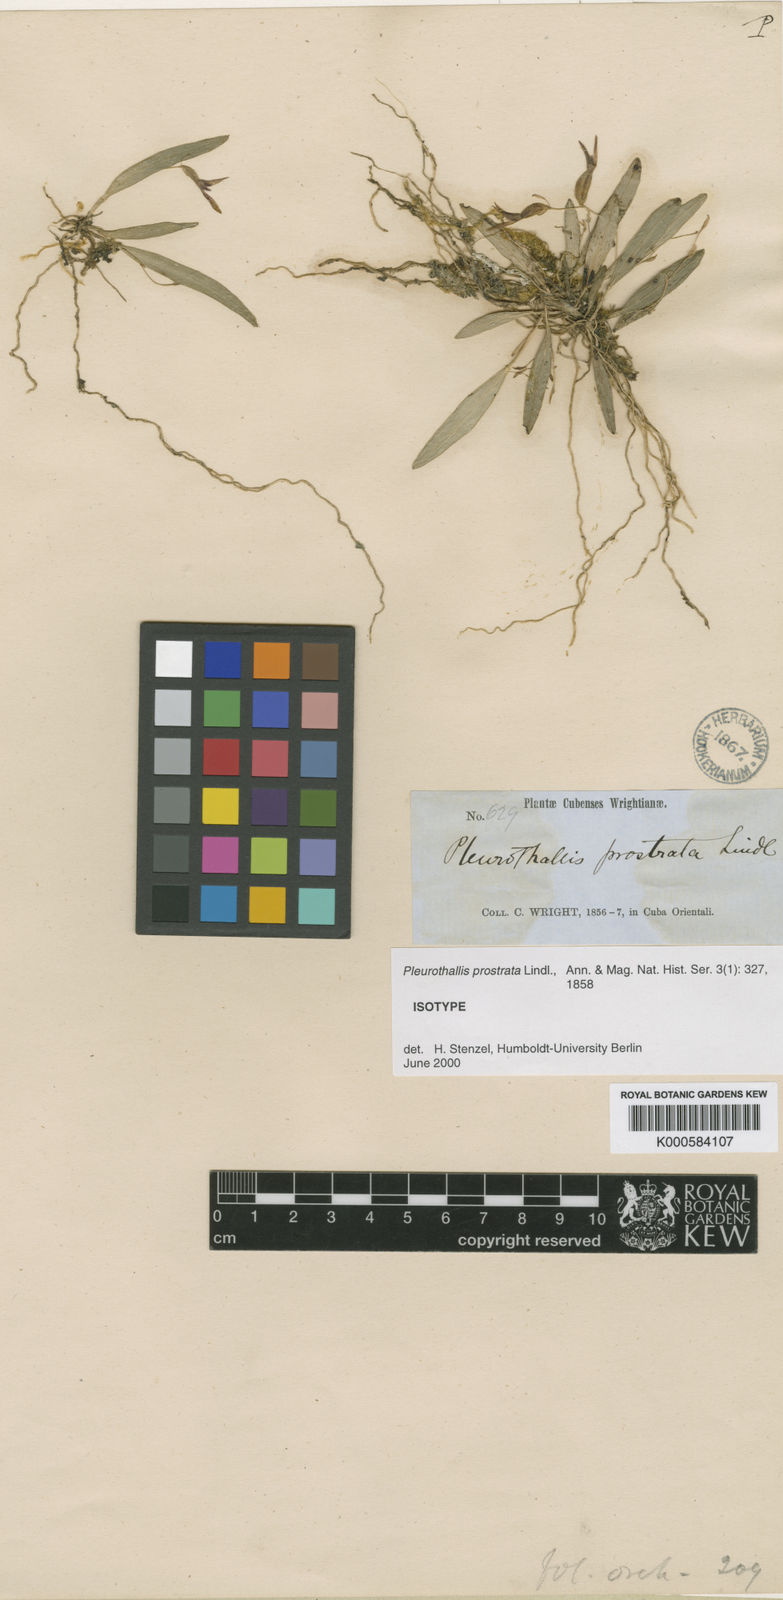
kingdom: Plantae
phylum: Tracheophyta
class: Liliopsida
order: Asparagales
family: Orchidaceae
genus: Acianthera
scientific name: Acianthera prostrata
